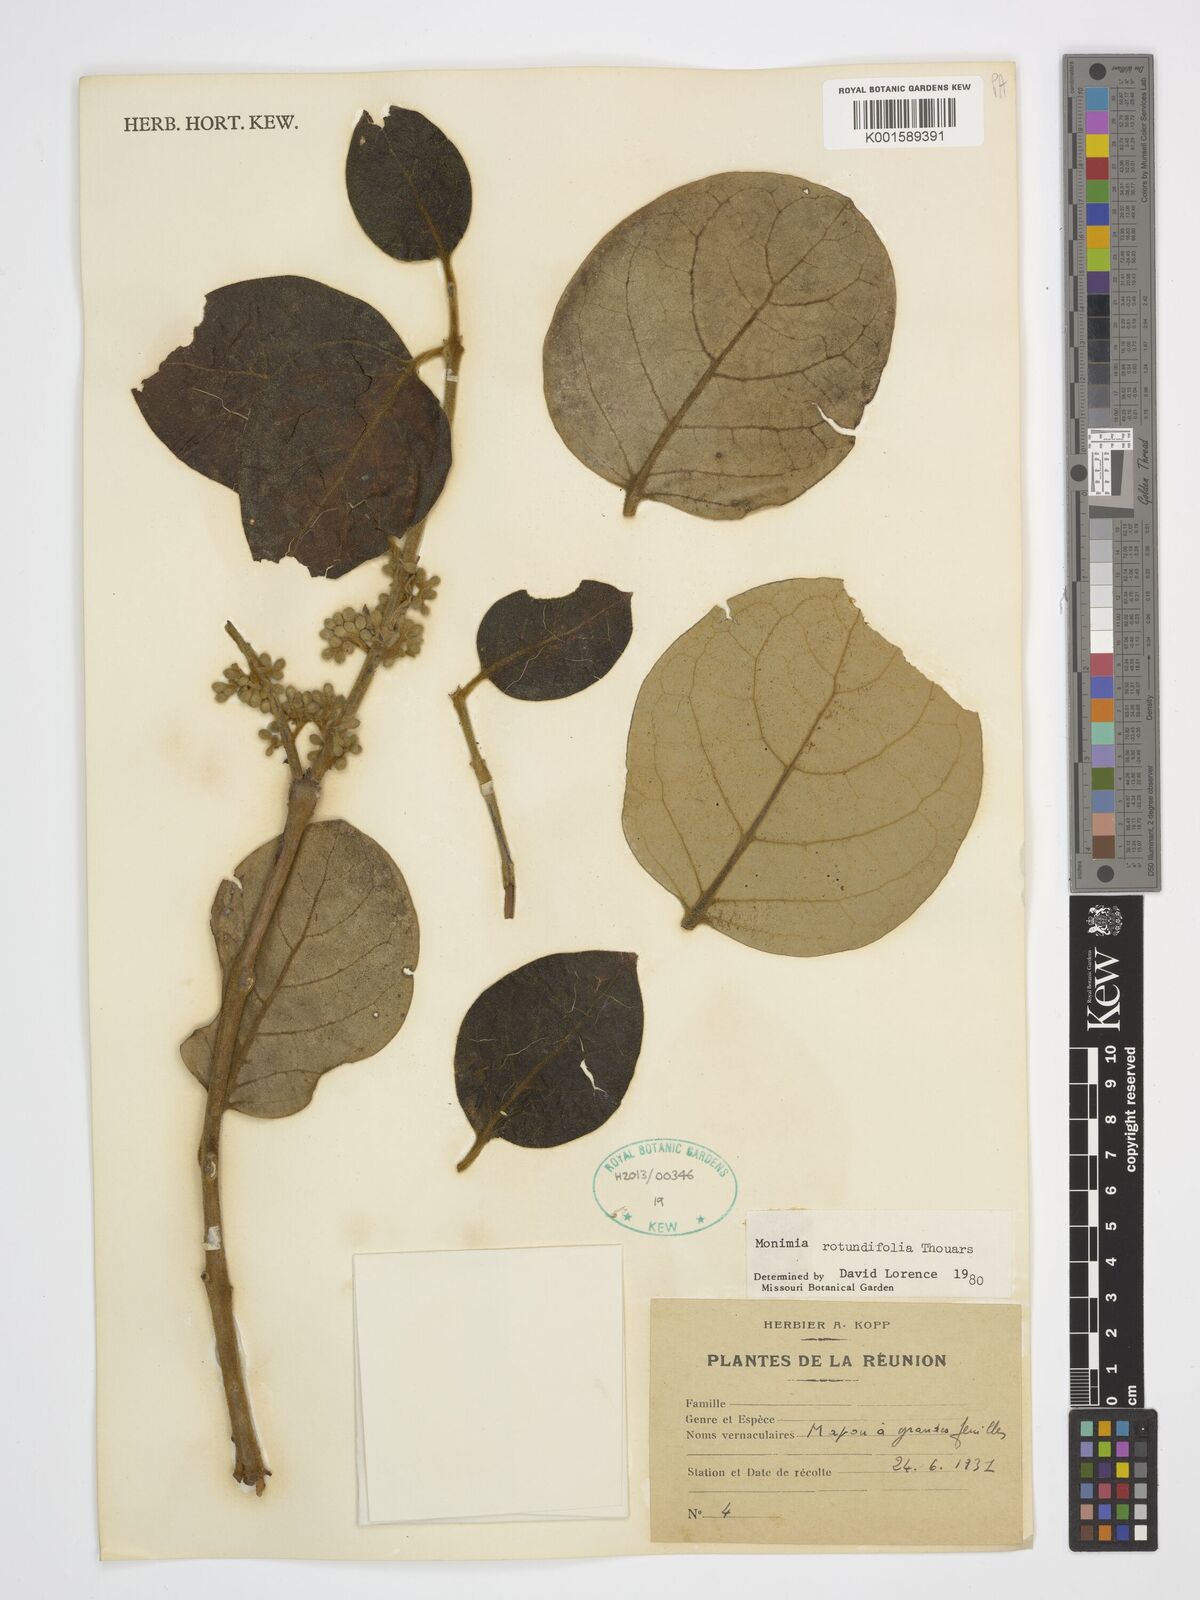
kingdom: Plantae
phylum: Tracheophyta
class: Magnoliopsida
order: Laurales
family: Monimiaceae
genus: Monimia
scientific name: Monimia rotundifolia
